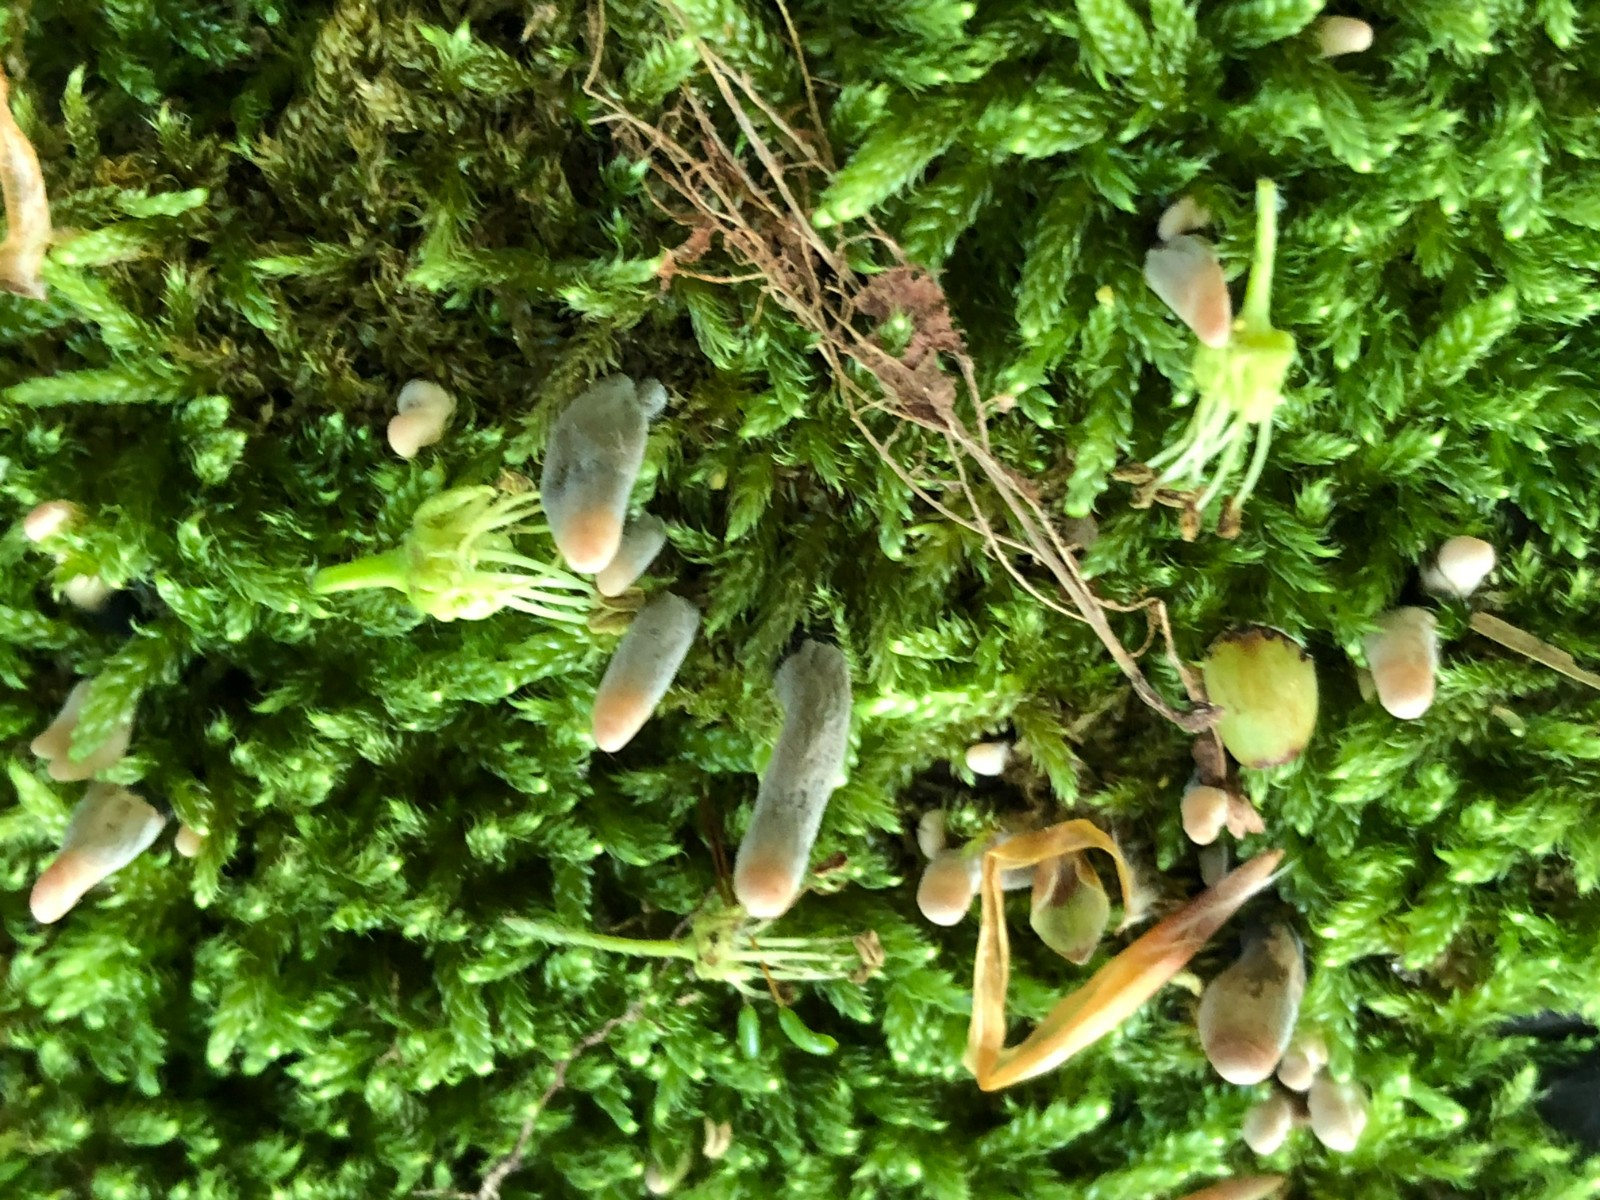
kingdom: Fungi
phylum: Ascomycota
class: Sordariomycetes
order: Xylariales
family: Xylariaceae
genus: Xylaria
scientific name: Xylaria longipes
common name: slank stødsvamp
